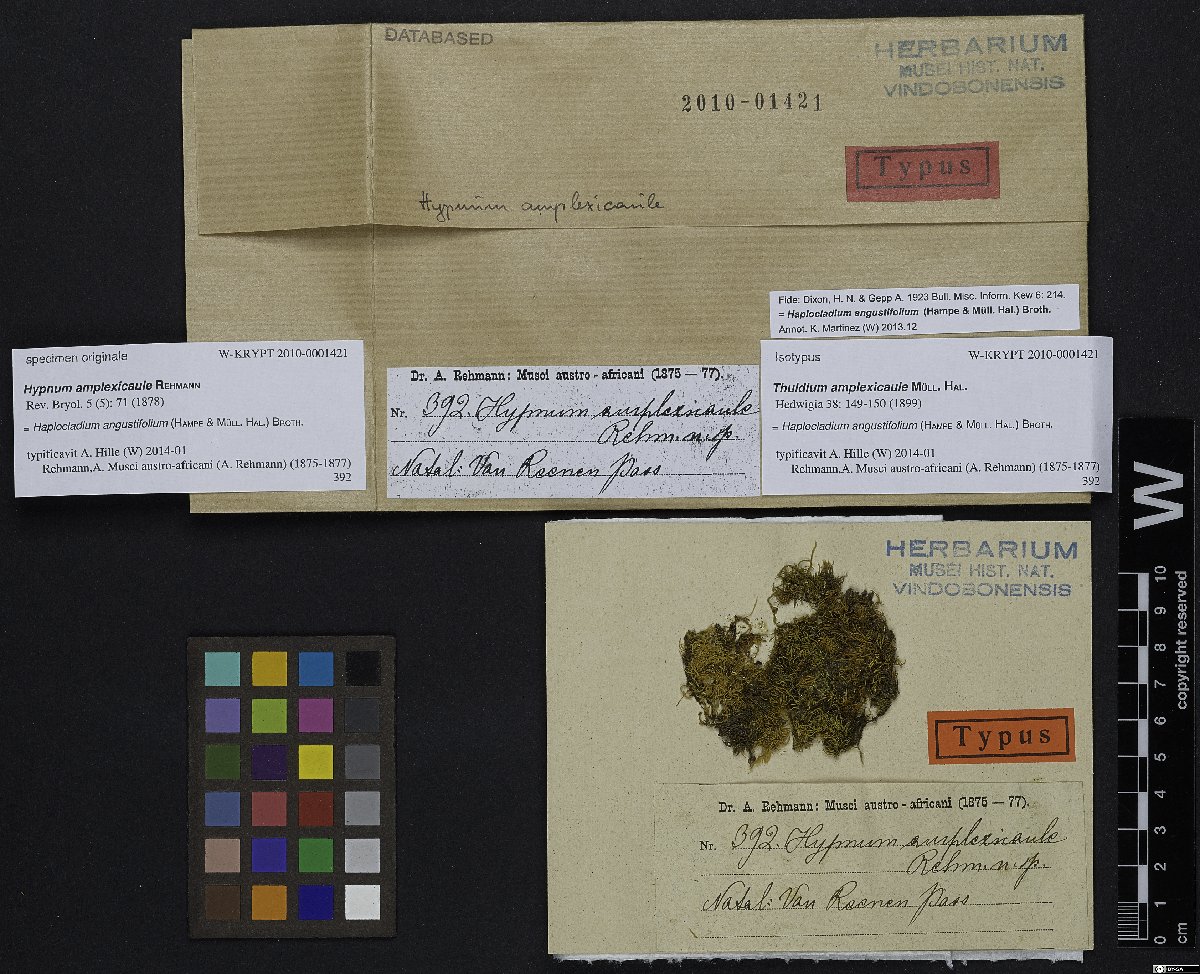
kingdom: Plantae
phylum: Bryophyta
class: Bryopsida
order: Hypnales
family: Leskeaceae
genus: Haplocladium
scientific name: Haplocladium angustifolium
